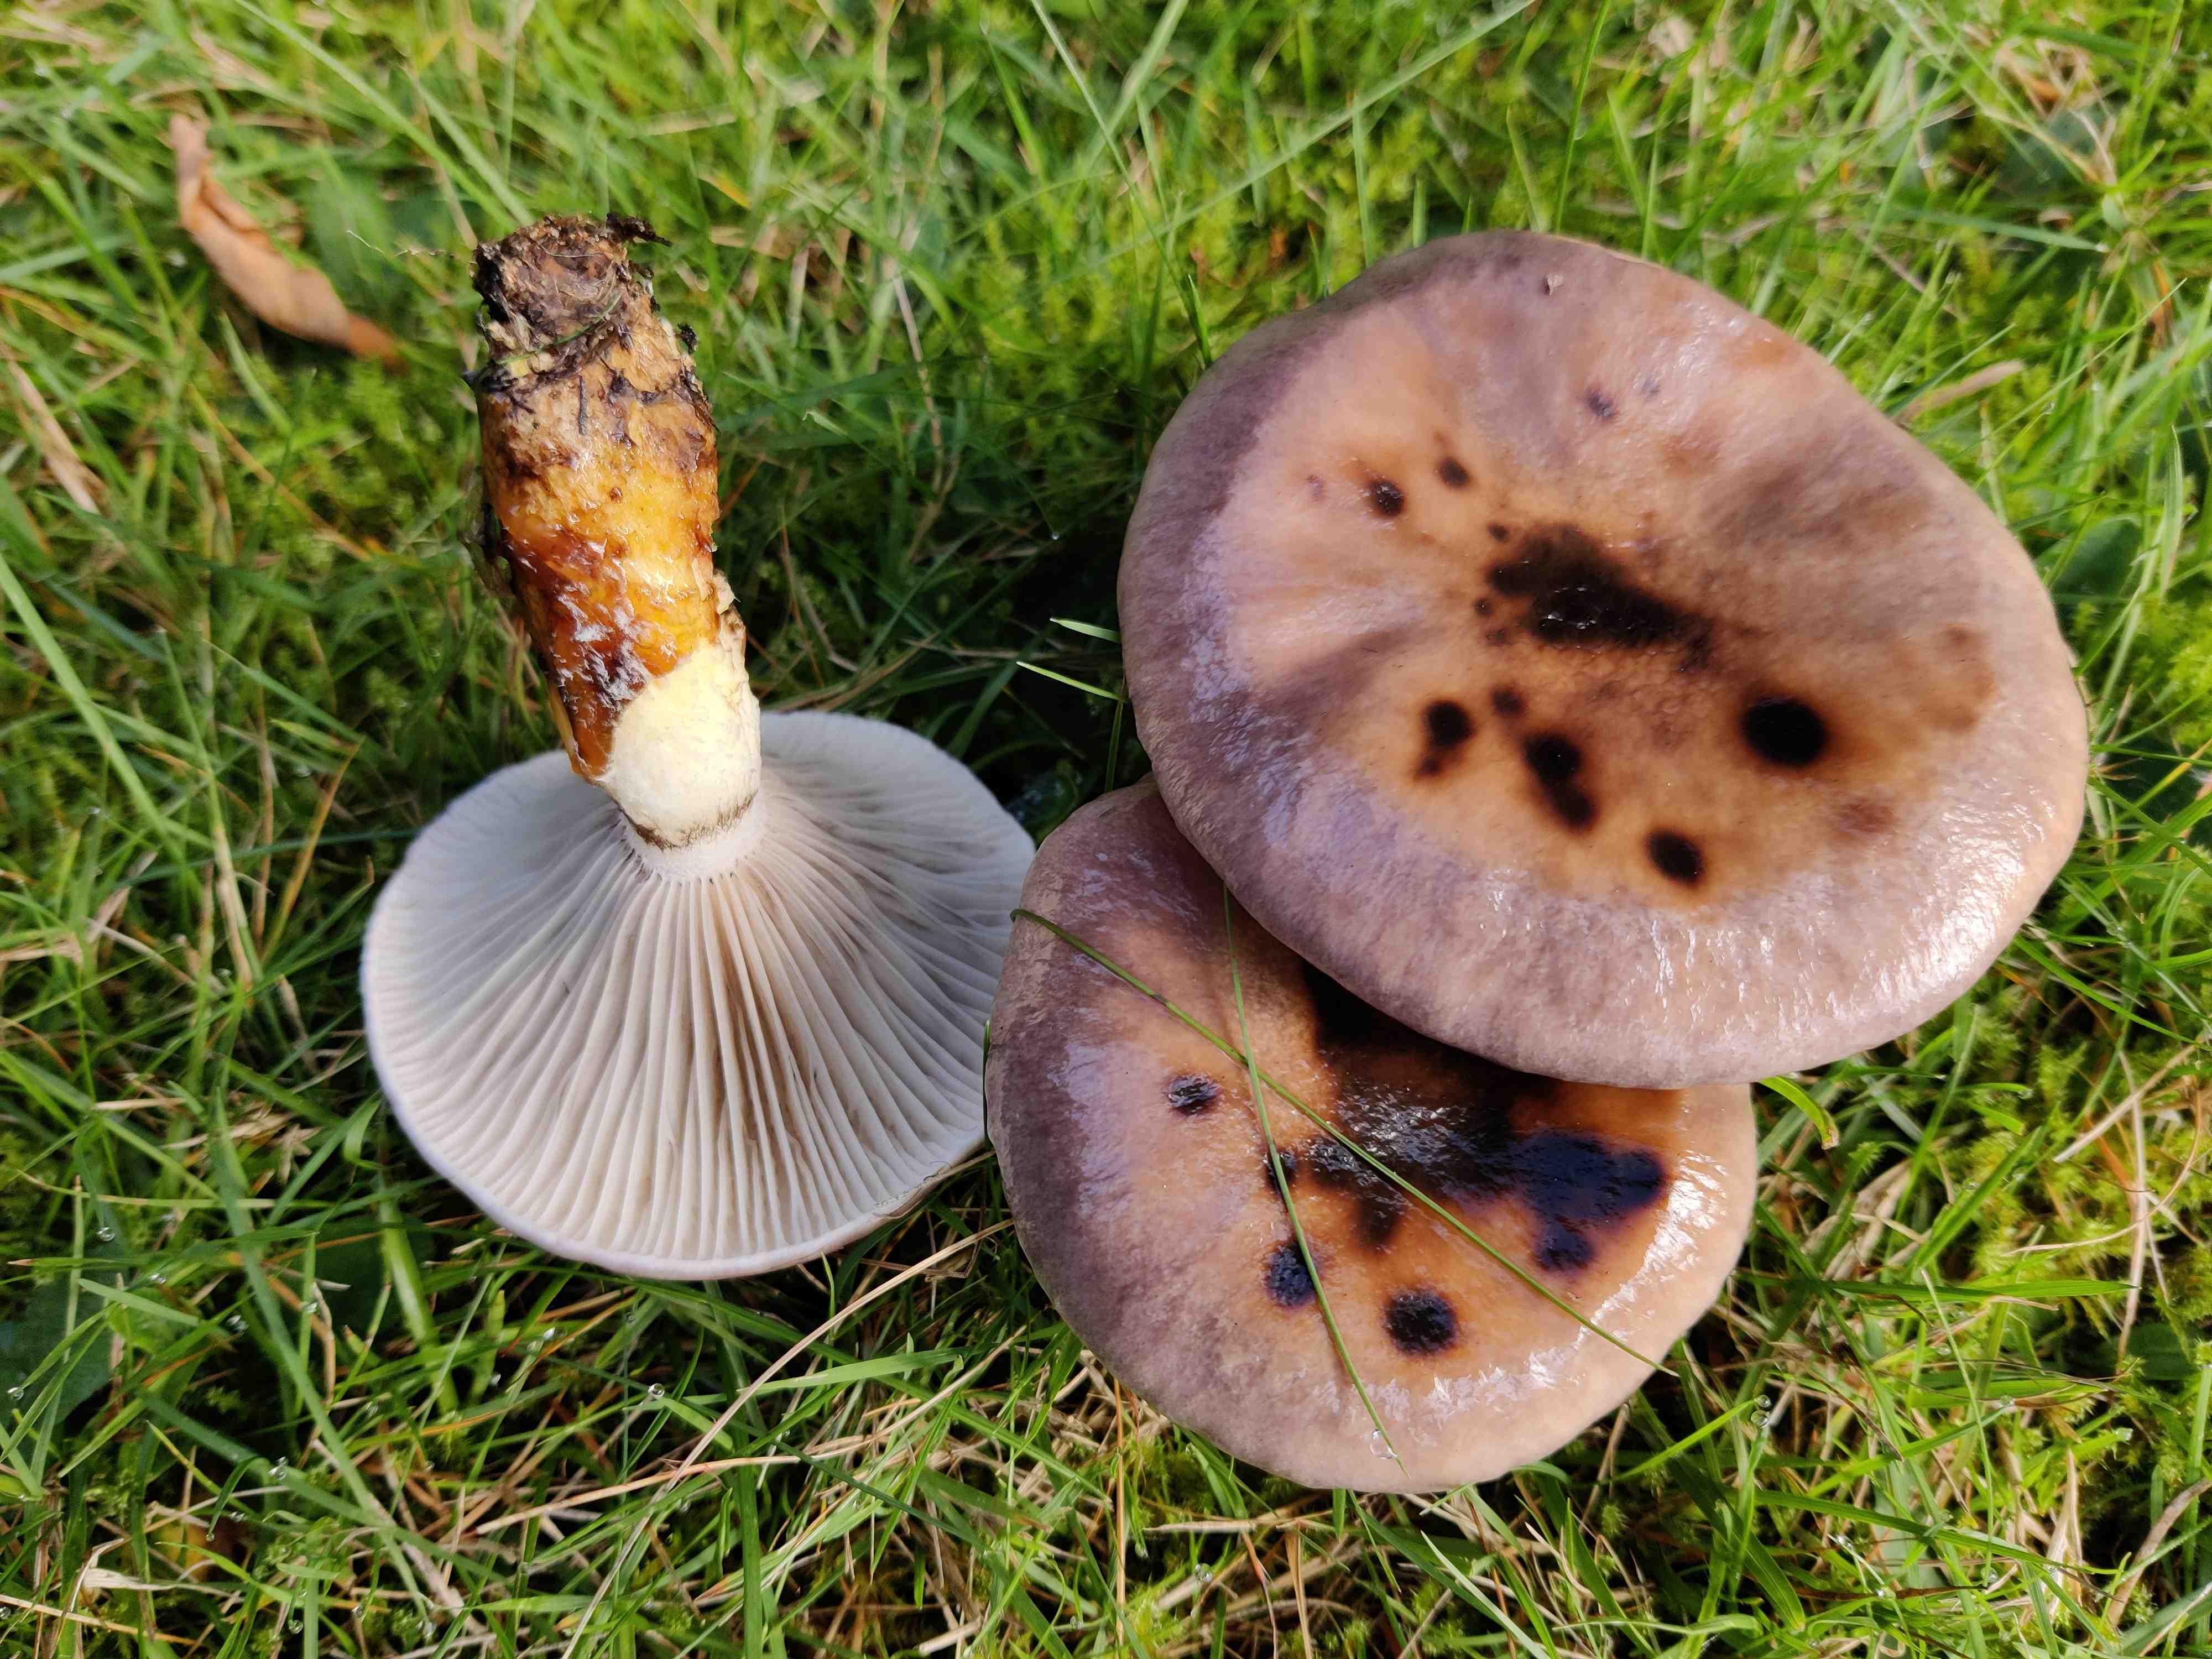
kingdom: Fungi
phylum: Basidiomycota
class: Agaricomycetes
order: Boletales
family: Gomphidiaceae
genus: Gomphidius
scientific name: Gomphidius glutinosus
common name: grå slimslør
